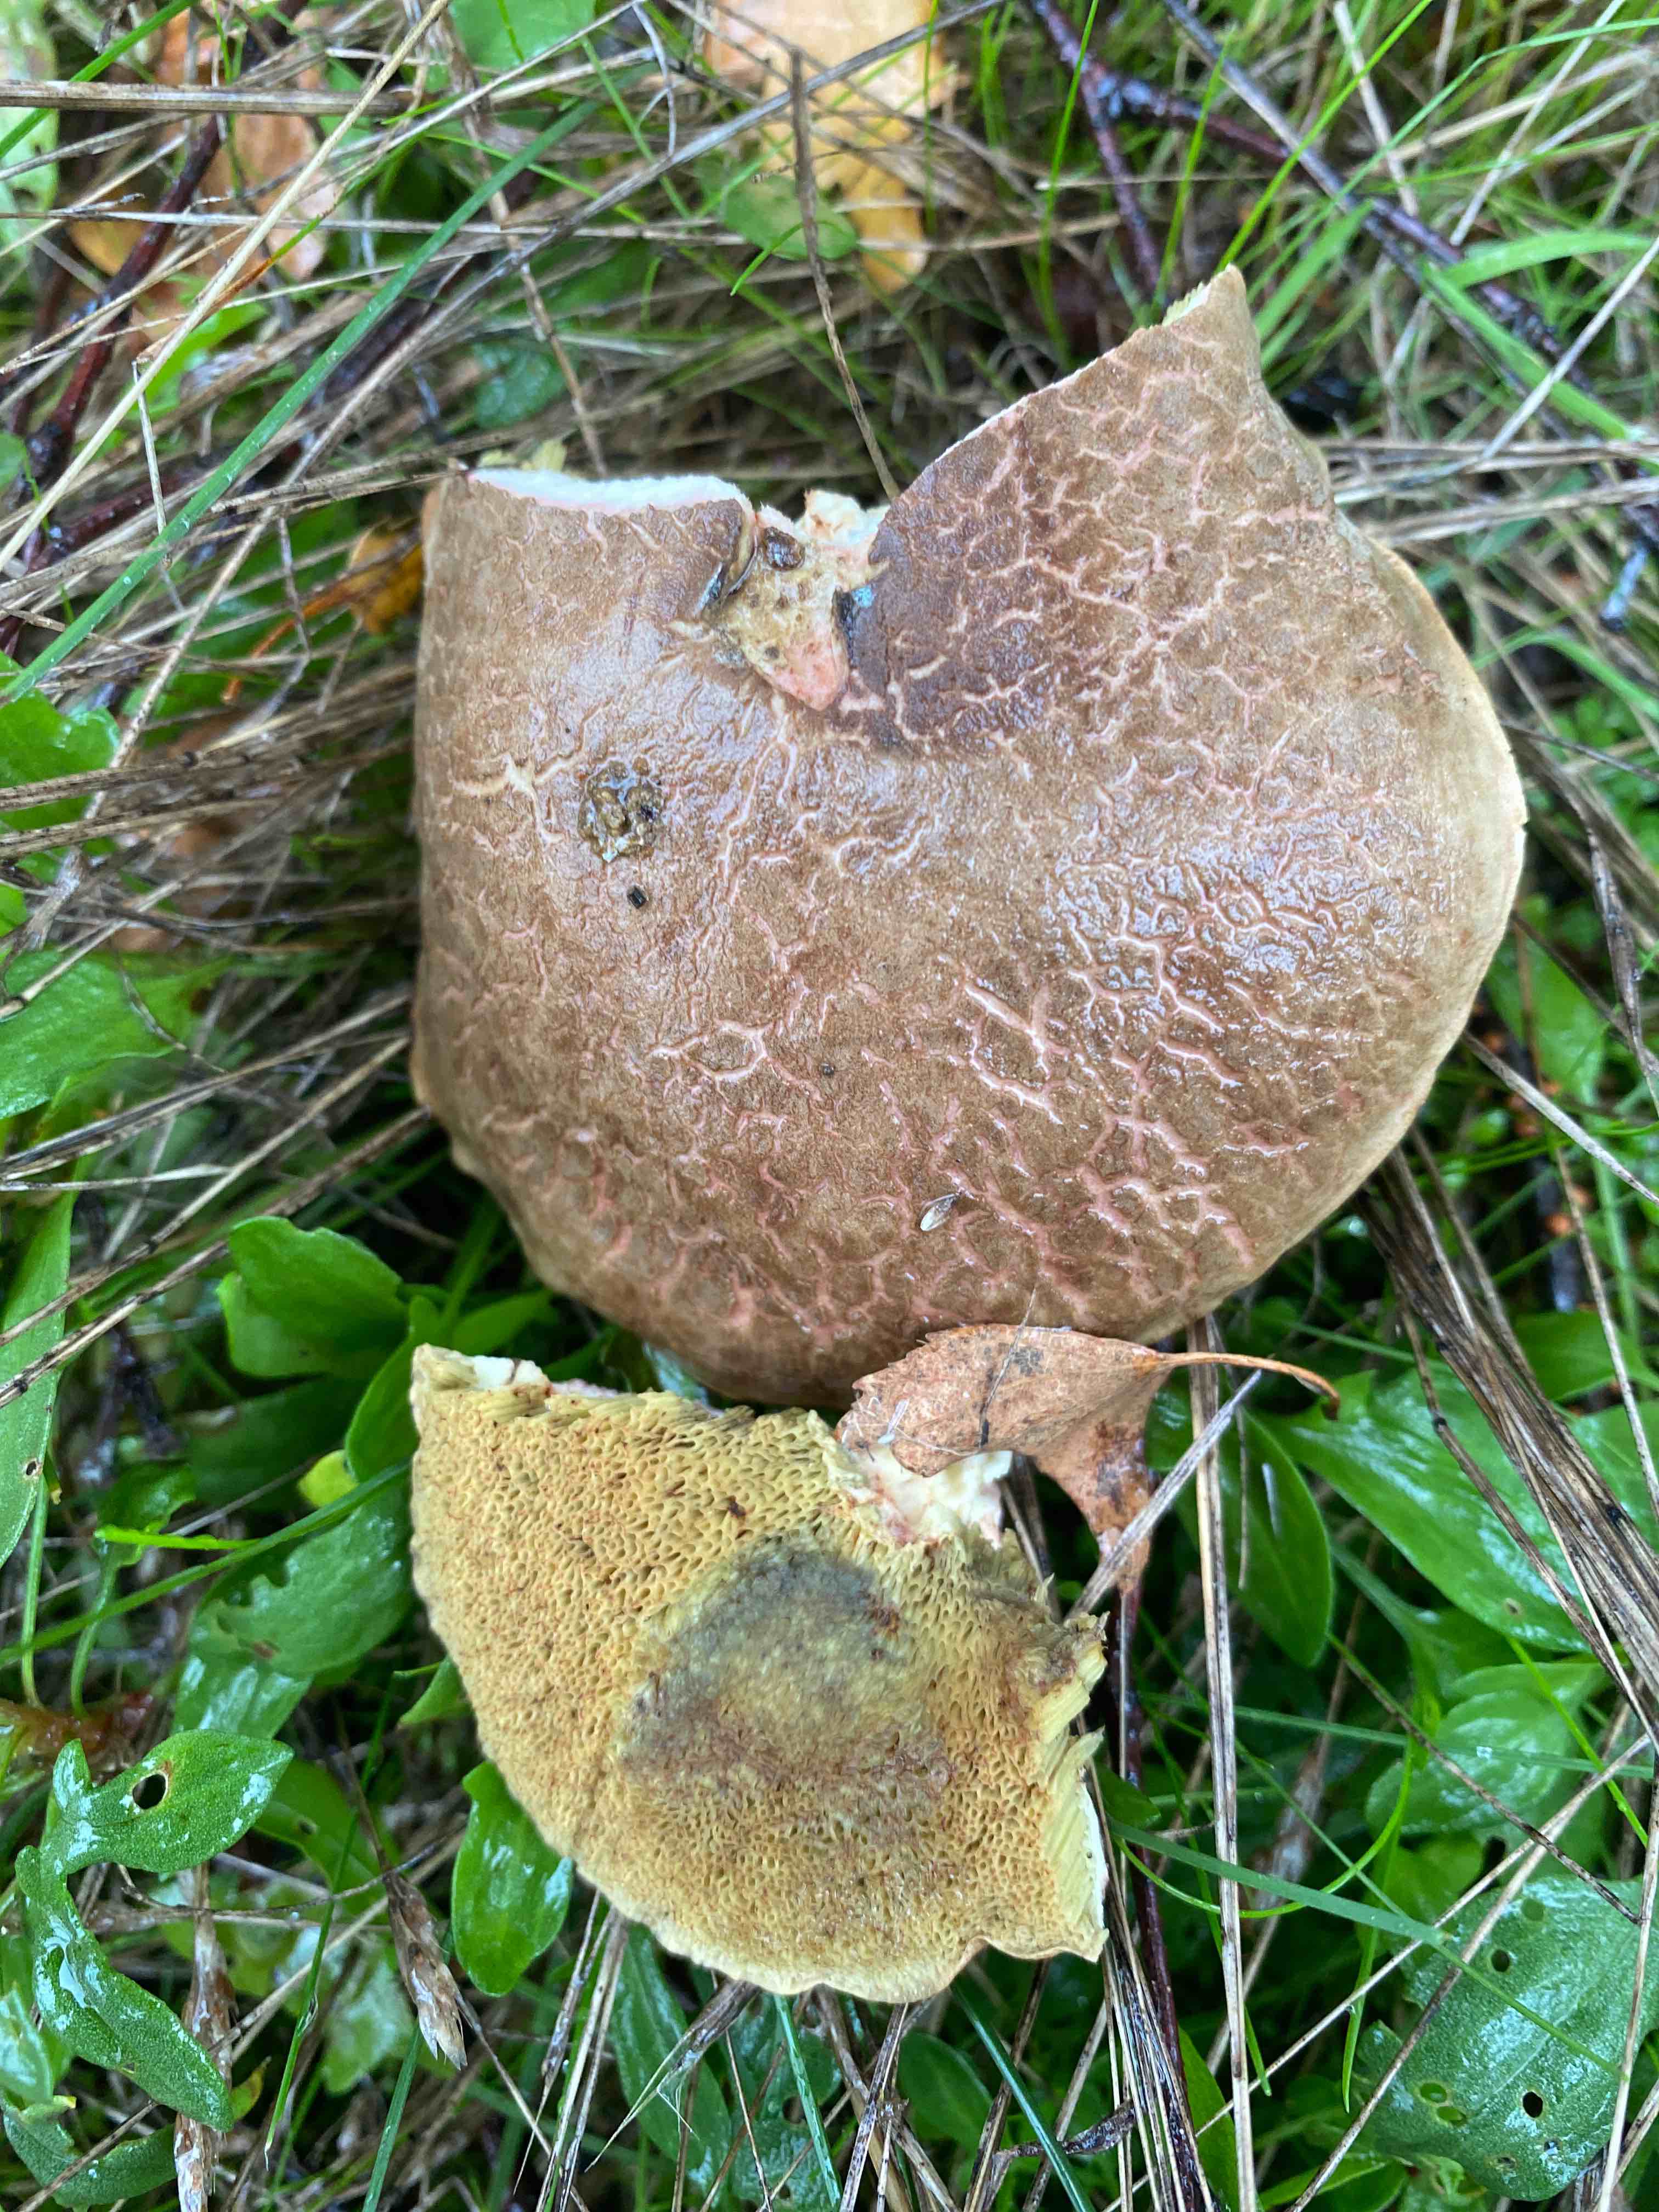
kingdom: Fungi
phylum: Basidiomycota
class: Agaricomycetes
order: Boletales
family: Boletaceae
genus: Xerocomellus
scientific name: Xerocomellus chrysenteron
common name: rødsprukken rørhat
